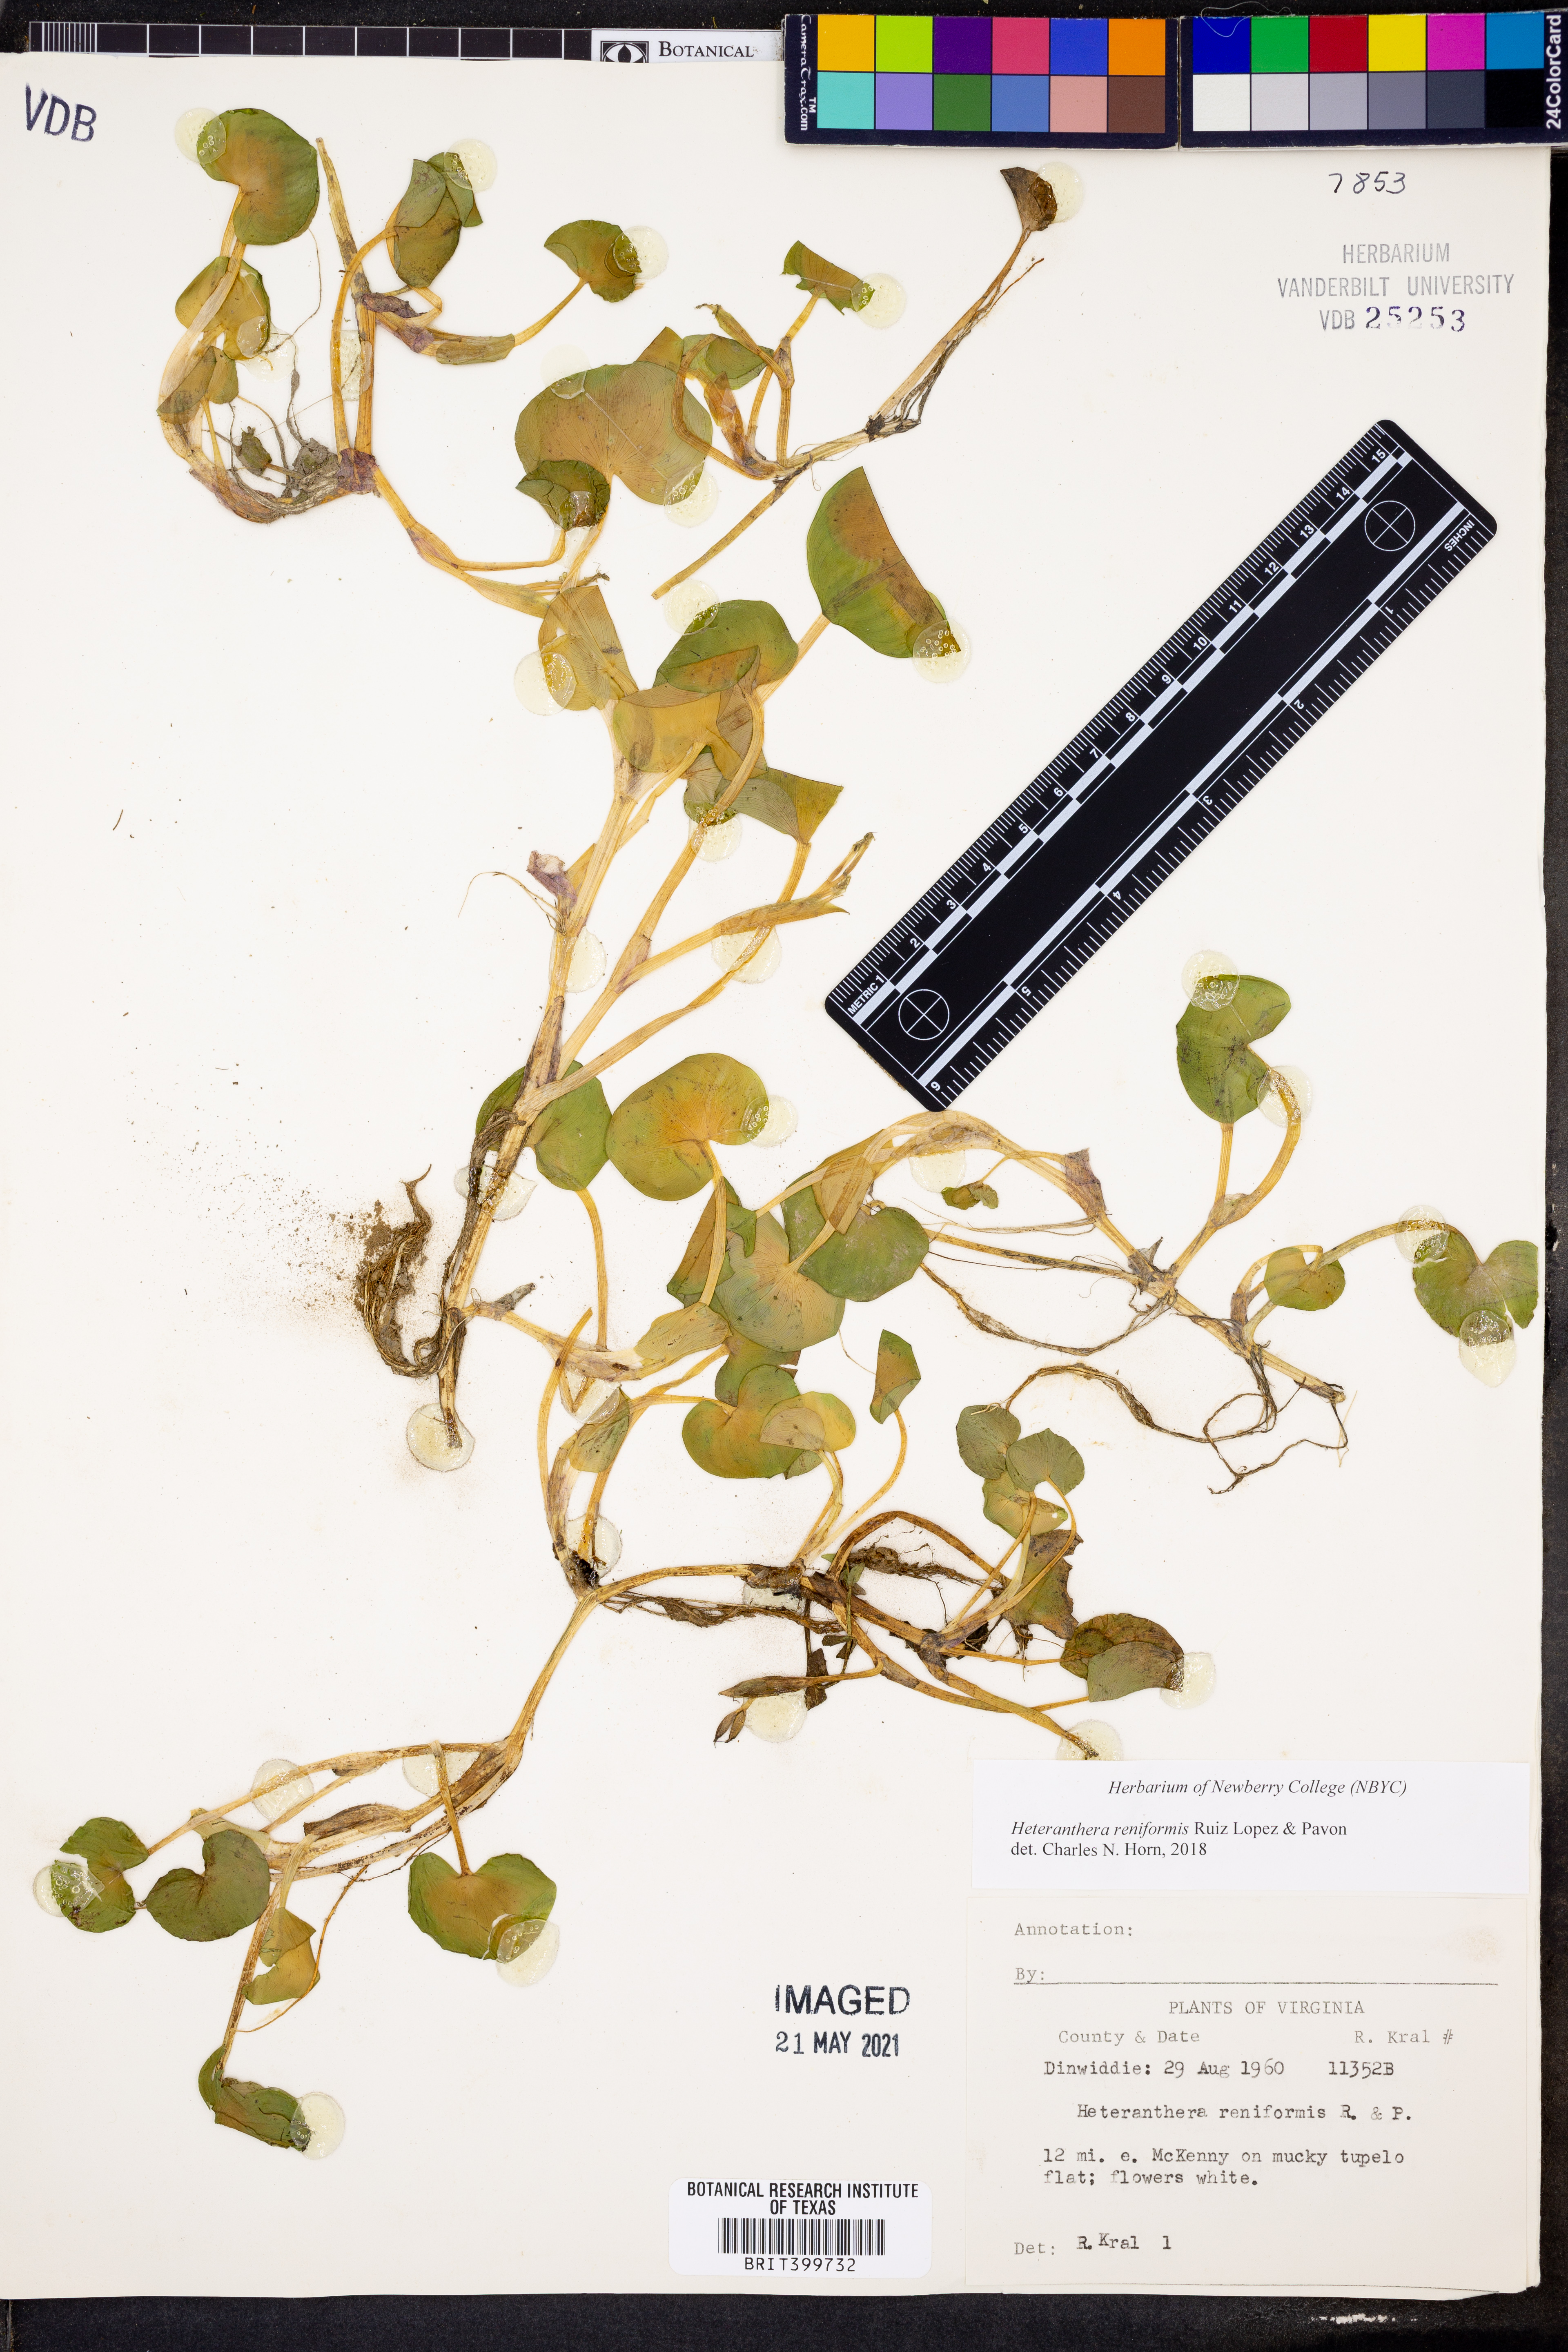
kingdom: Plantae
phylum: Tracheophyta
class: Liliopsida
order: Commelinales
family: Pontederiaceae
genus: Heteranthera
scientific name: Heteranthera reniformis
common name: Kidneyleaf mudplantain
